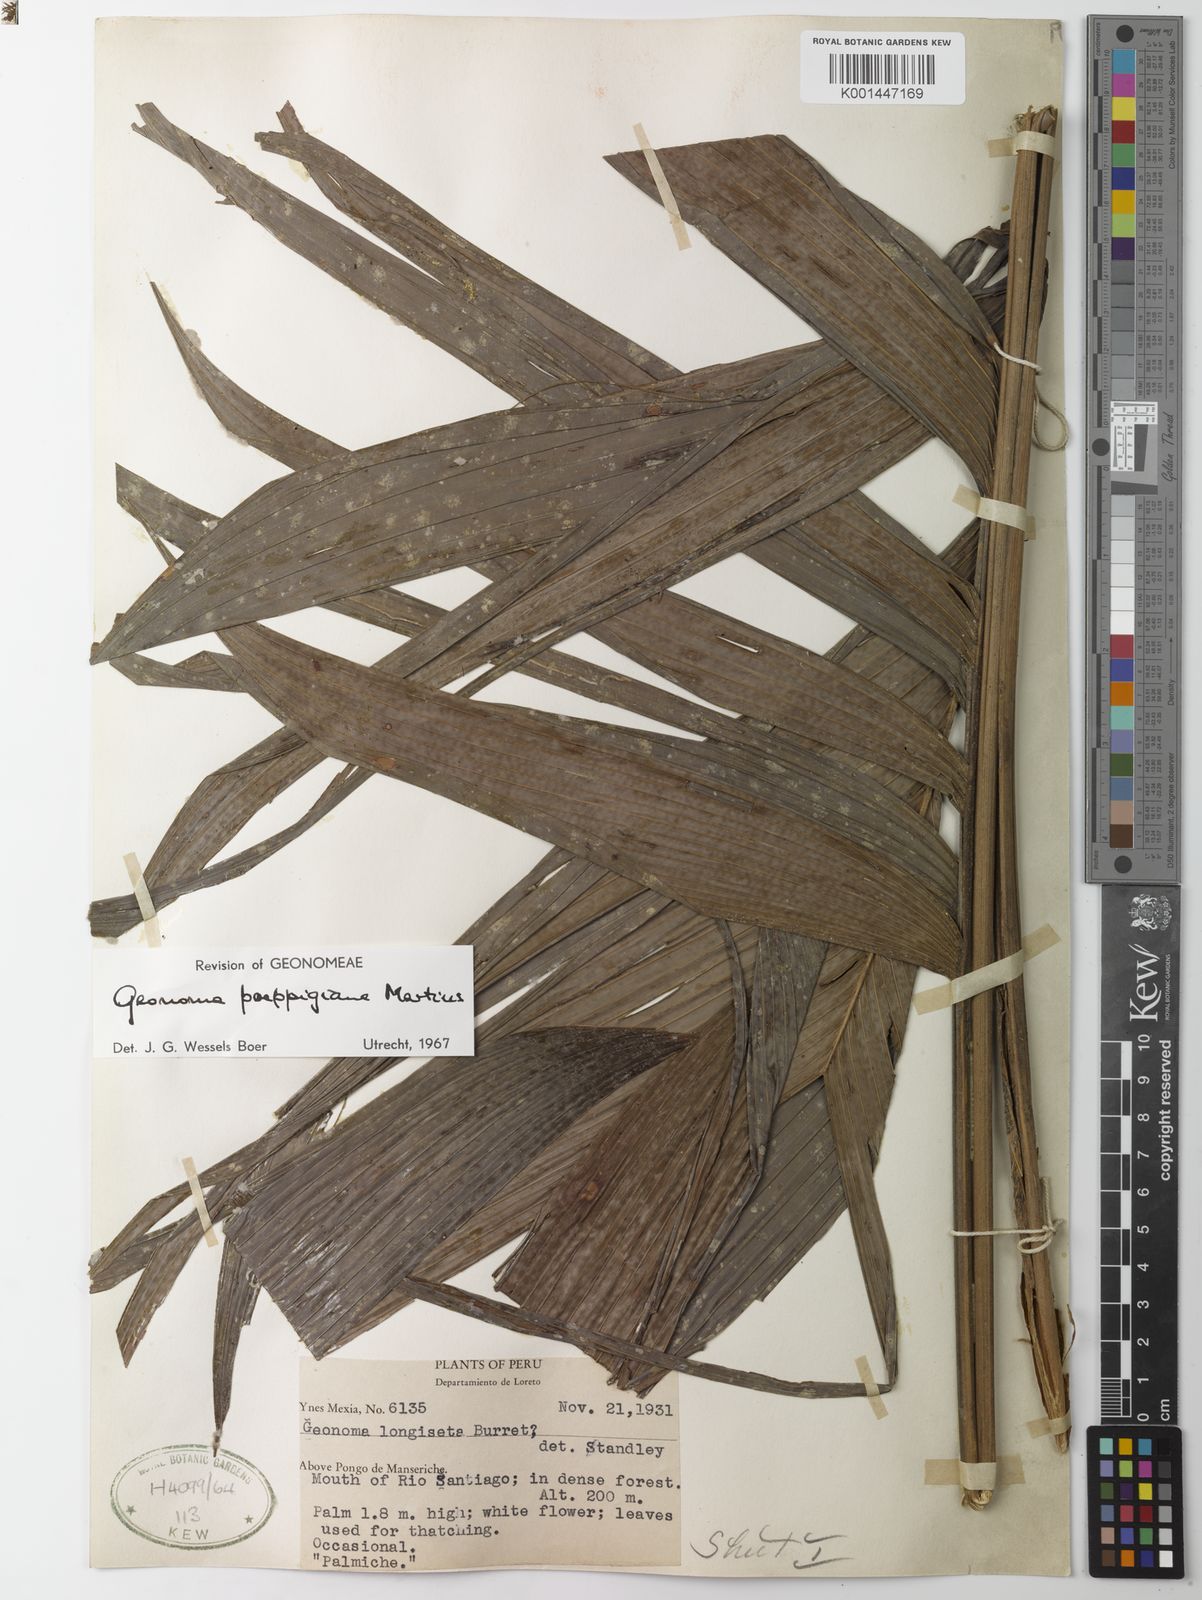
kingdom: Plantae
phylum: Tracheophyta
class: Liliopsida
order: Arecales
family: Arecaceae
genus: Geonoma
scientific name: Geonoma poeppigiana
